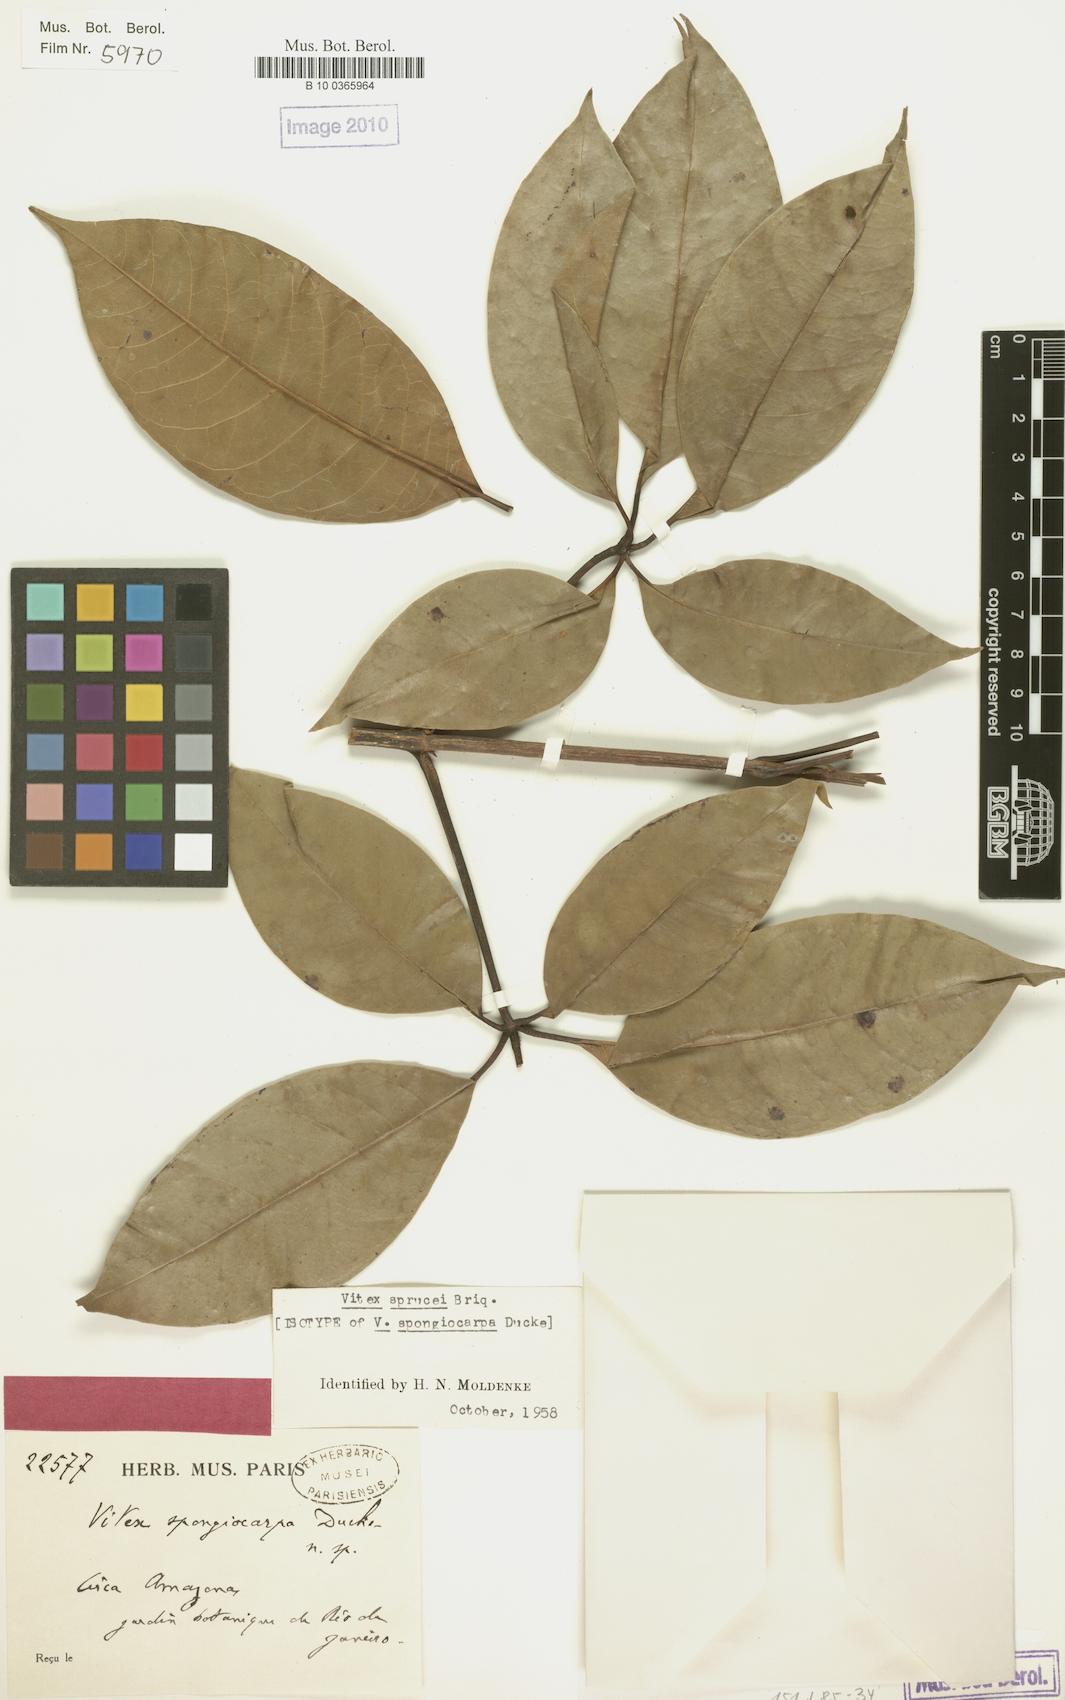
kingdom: Plantae
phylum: Tracheophyta
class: Magnoliopsida
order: Lamiales
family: Lamiaceae
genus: Vitex
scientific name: Vitex sprucei
